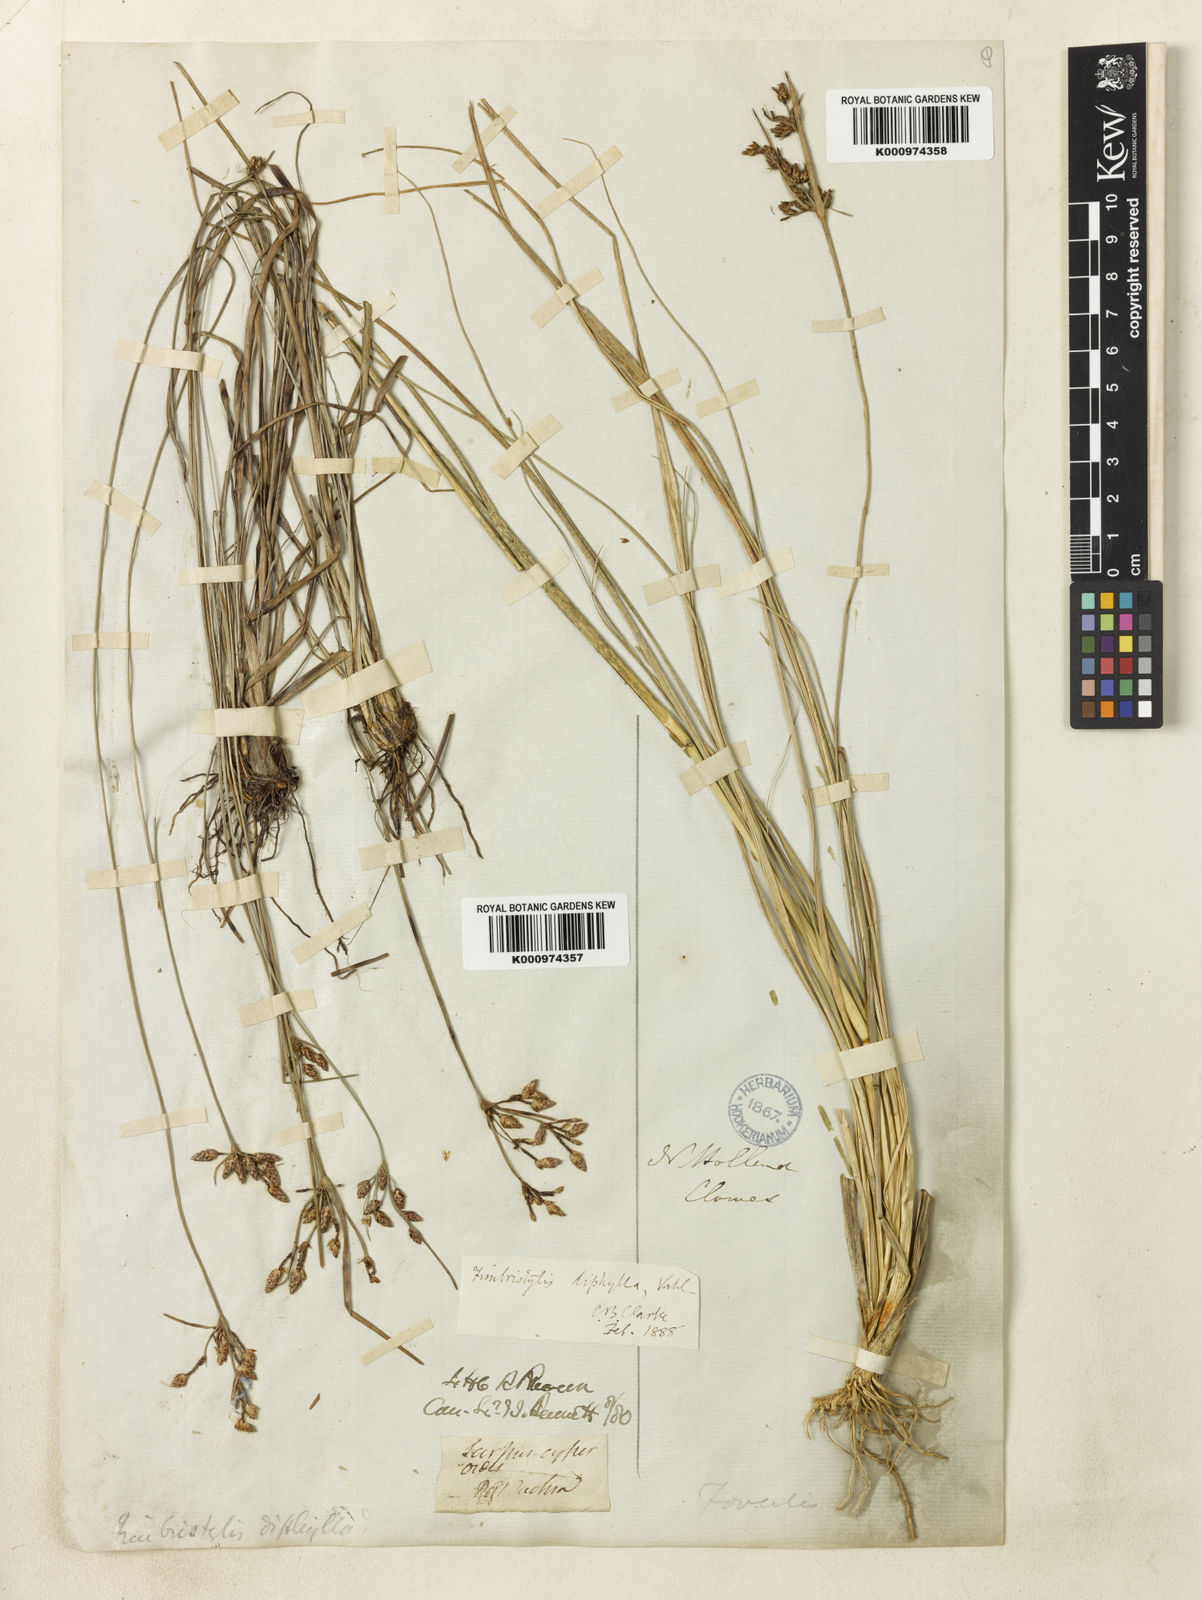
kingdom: Plantae
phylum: Tracheophyta
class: Liliopsida
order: Poales
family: Cyperaceae
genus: Fimbristylis
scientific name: Fimbristylis dichotoma
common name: Forked fimbry
